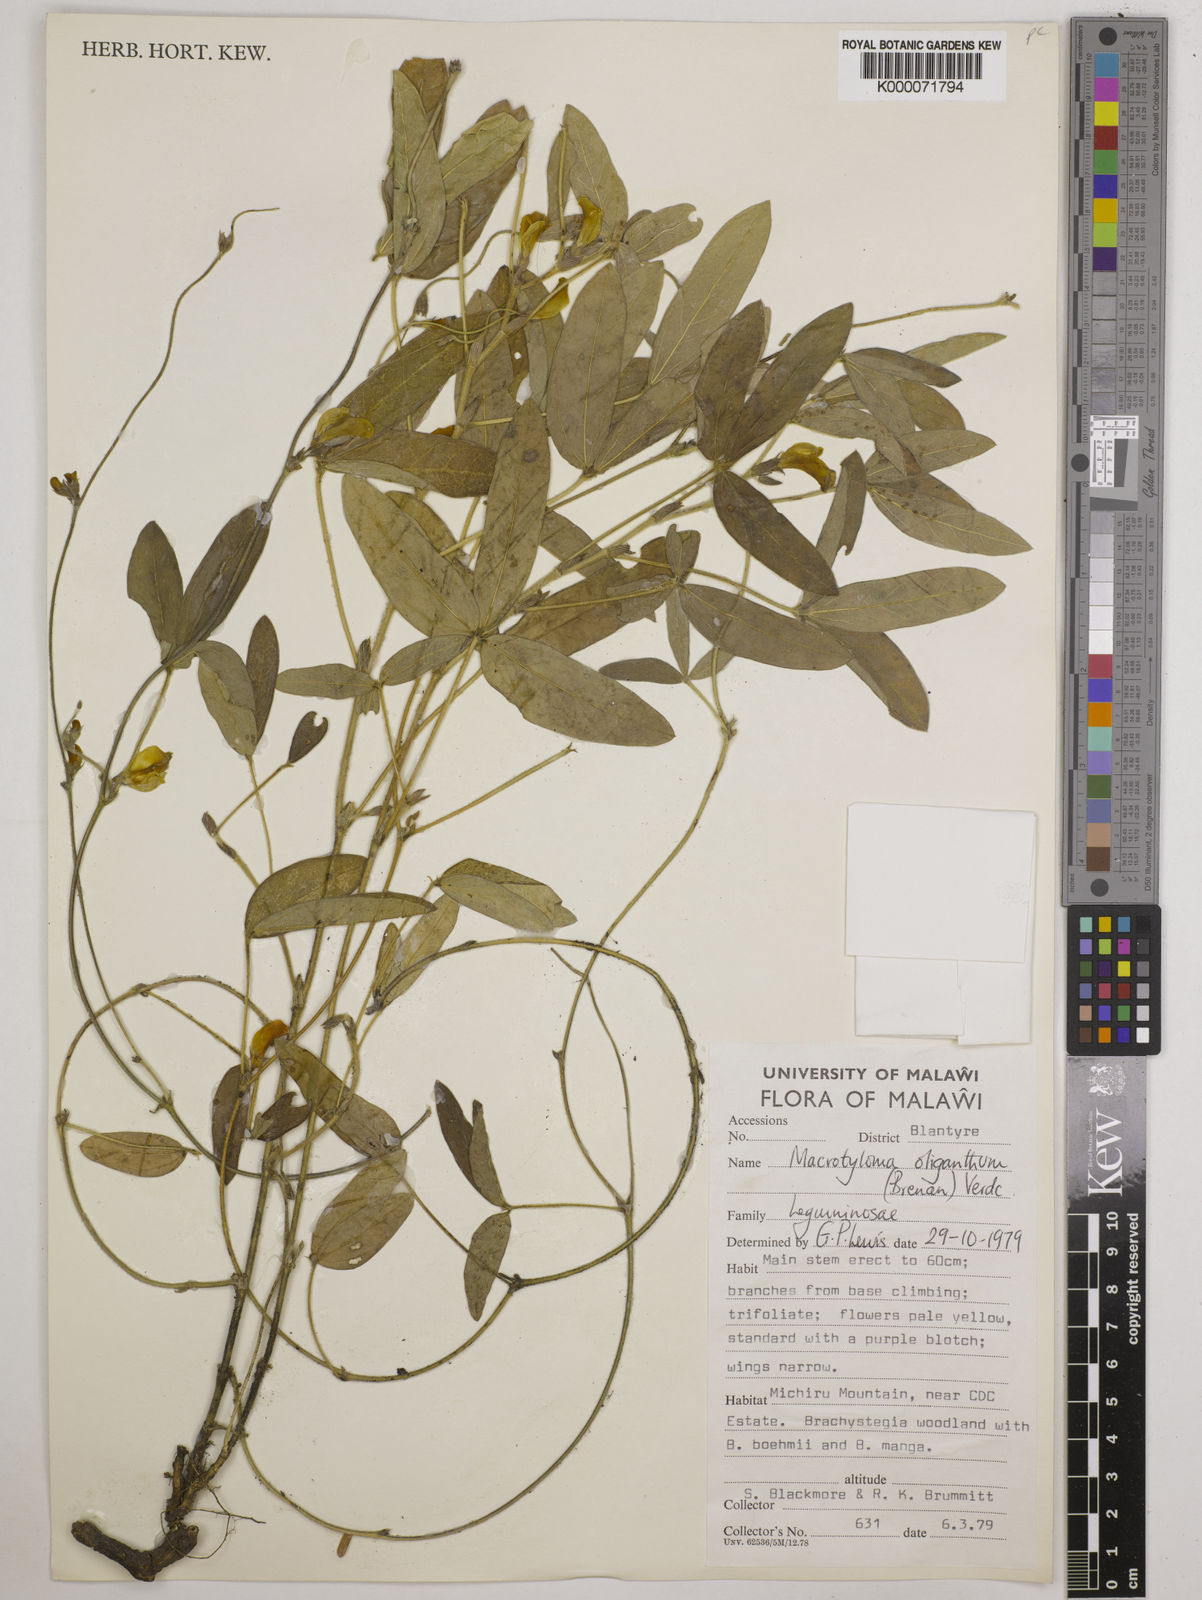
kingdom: Plantae
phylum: Tracheophyta
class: Magnoliopsida
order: Fabales
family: Fabaceae
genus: Macrotyloma
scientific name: Macrotyloma oliganthum
